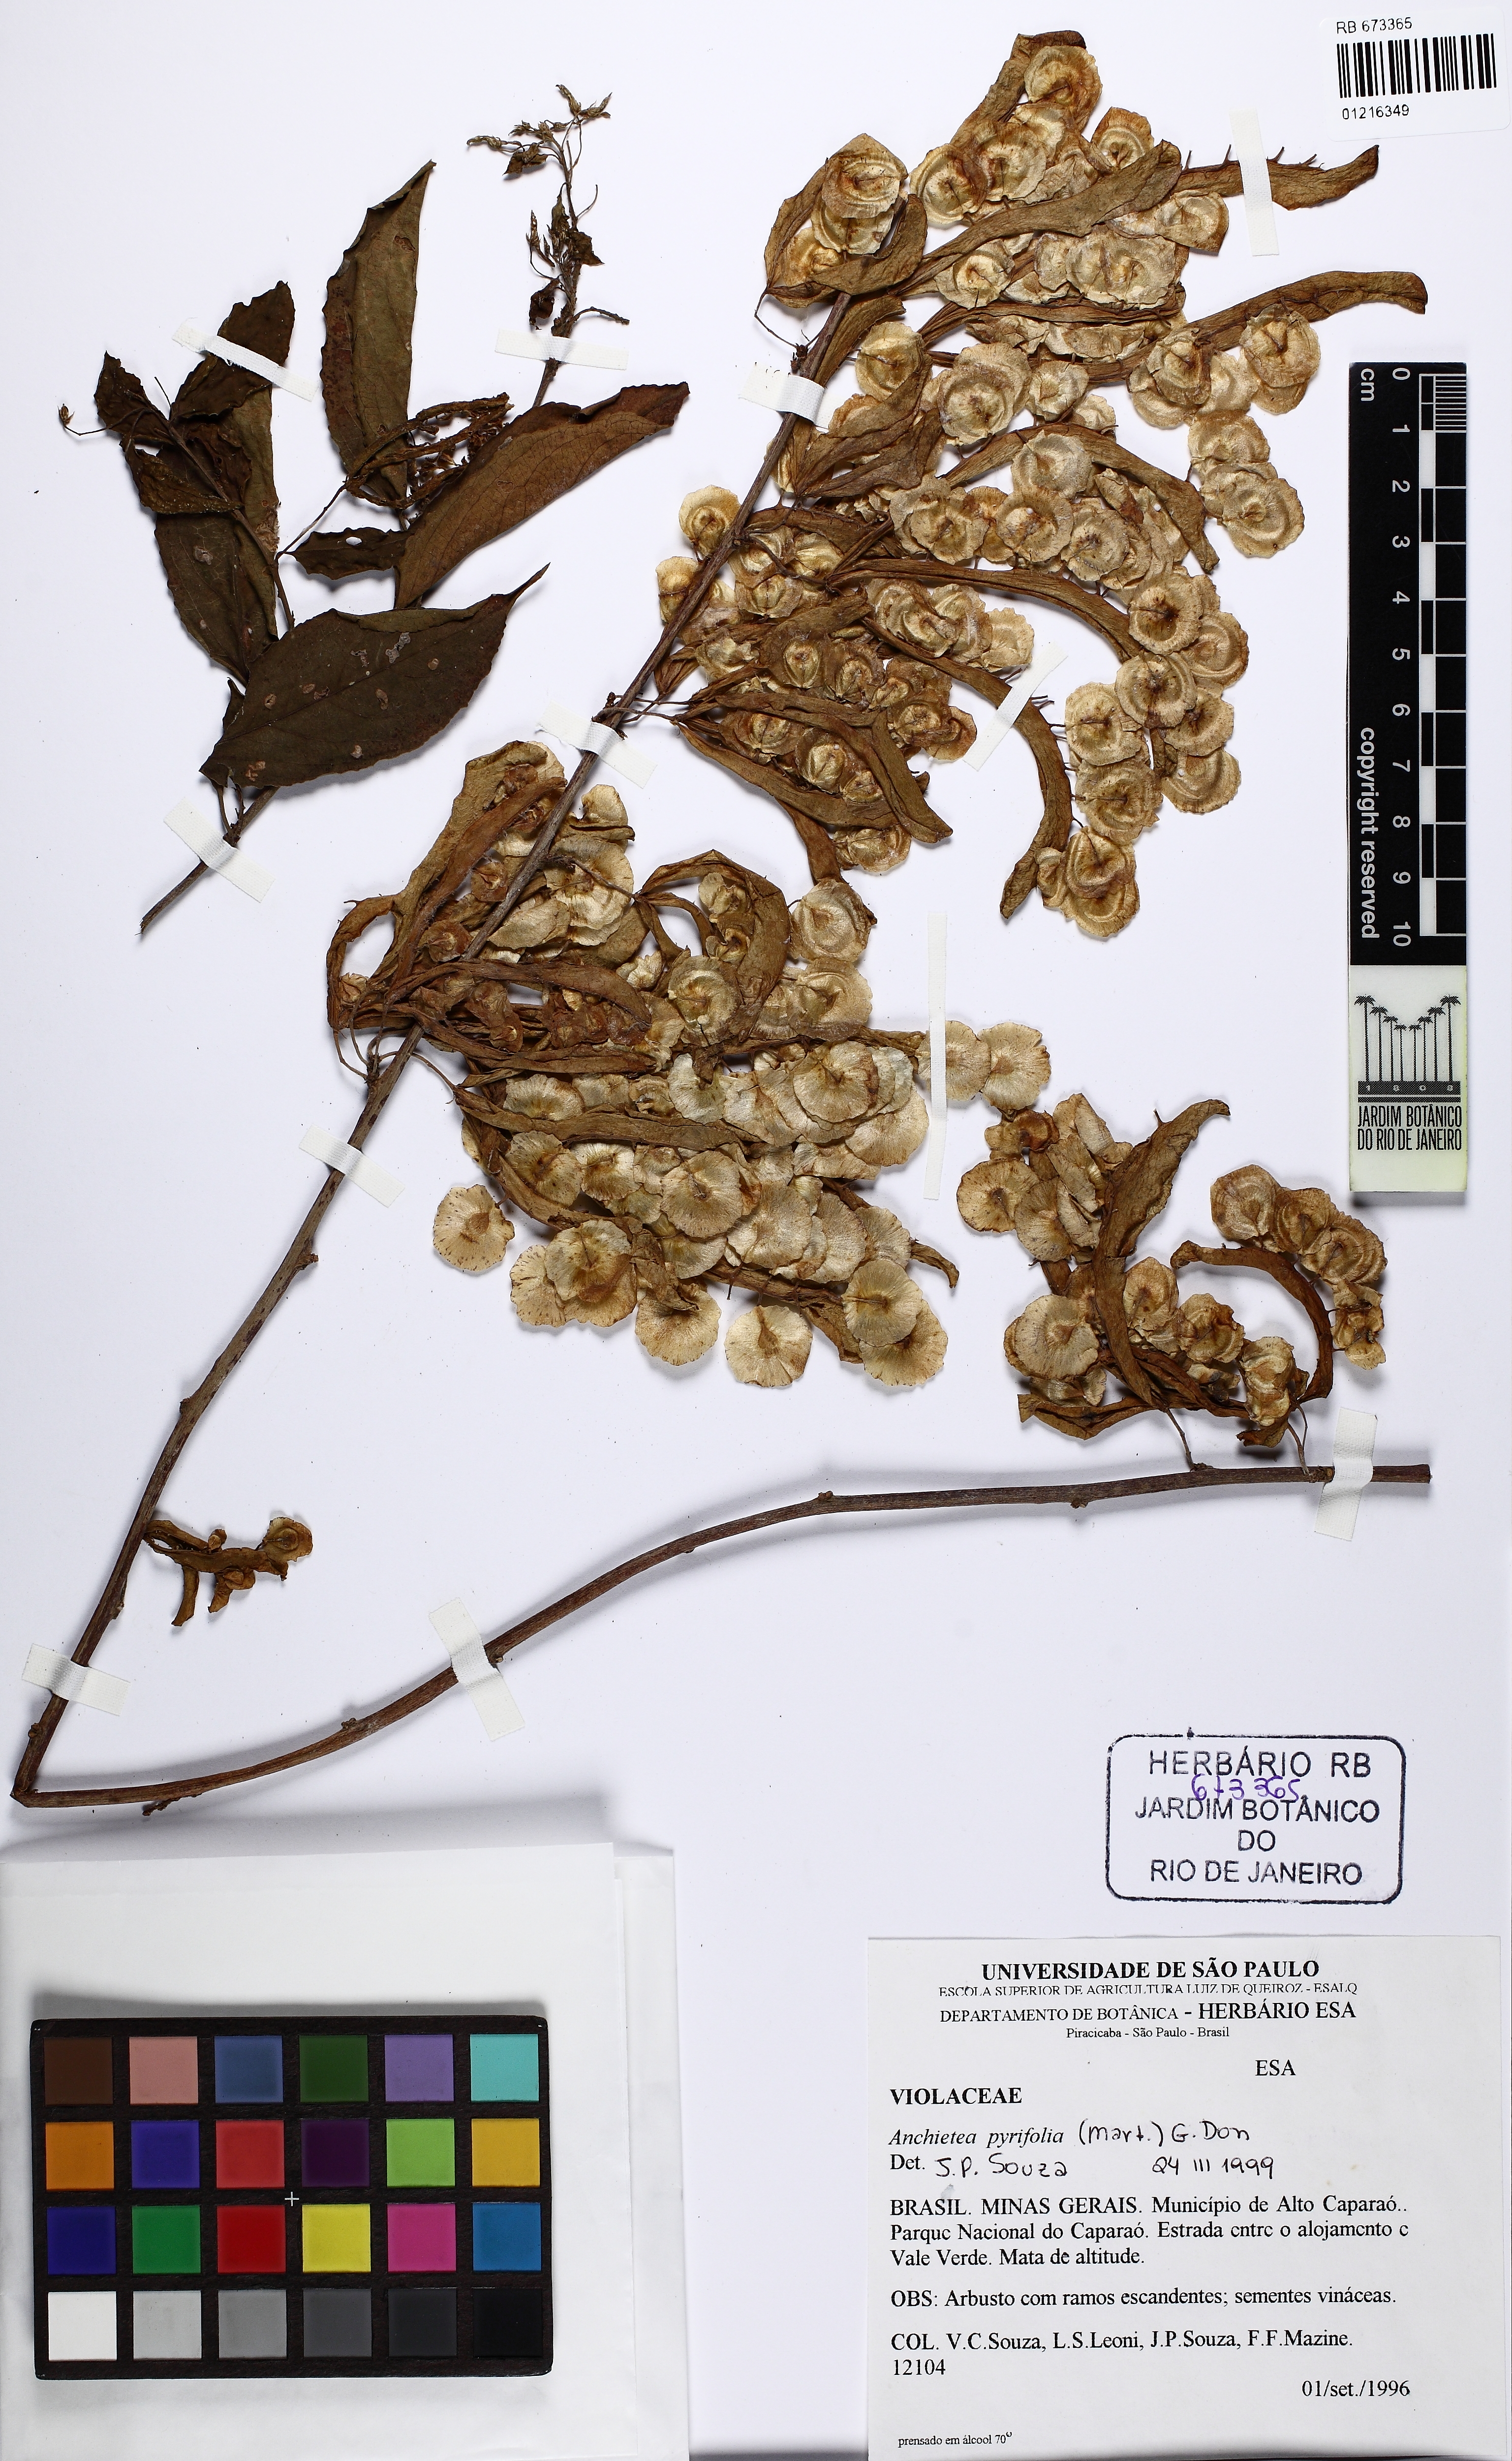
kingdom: Plantae
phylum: Tracheophyta
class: Magnoliopsida
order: Malpighiales
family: Violaceae
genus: Anchietea
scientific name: Anchietea pyrifolia
